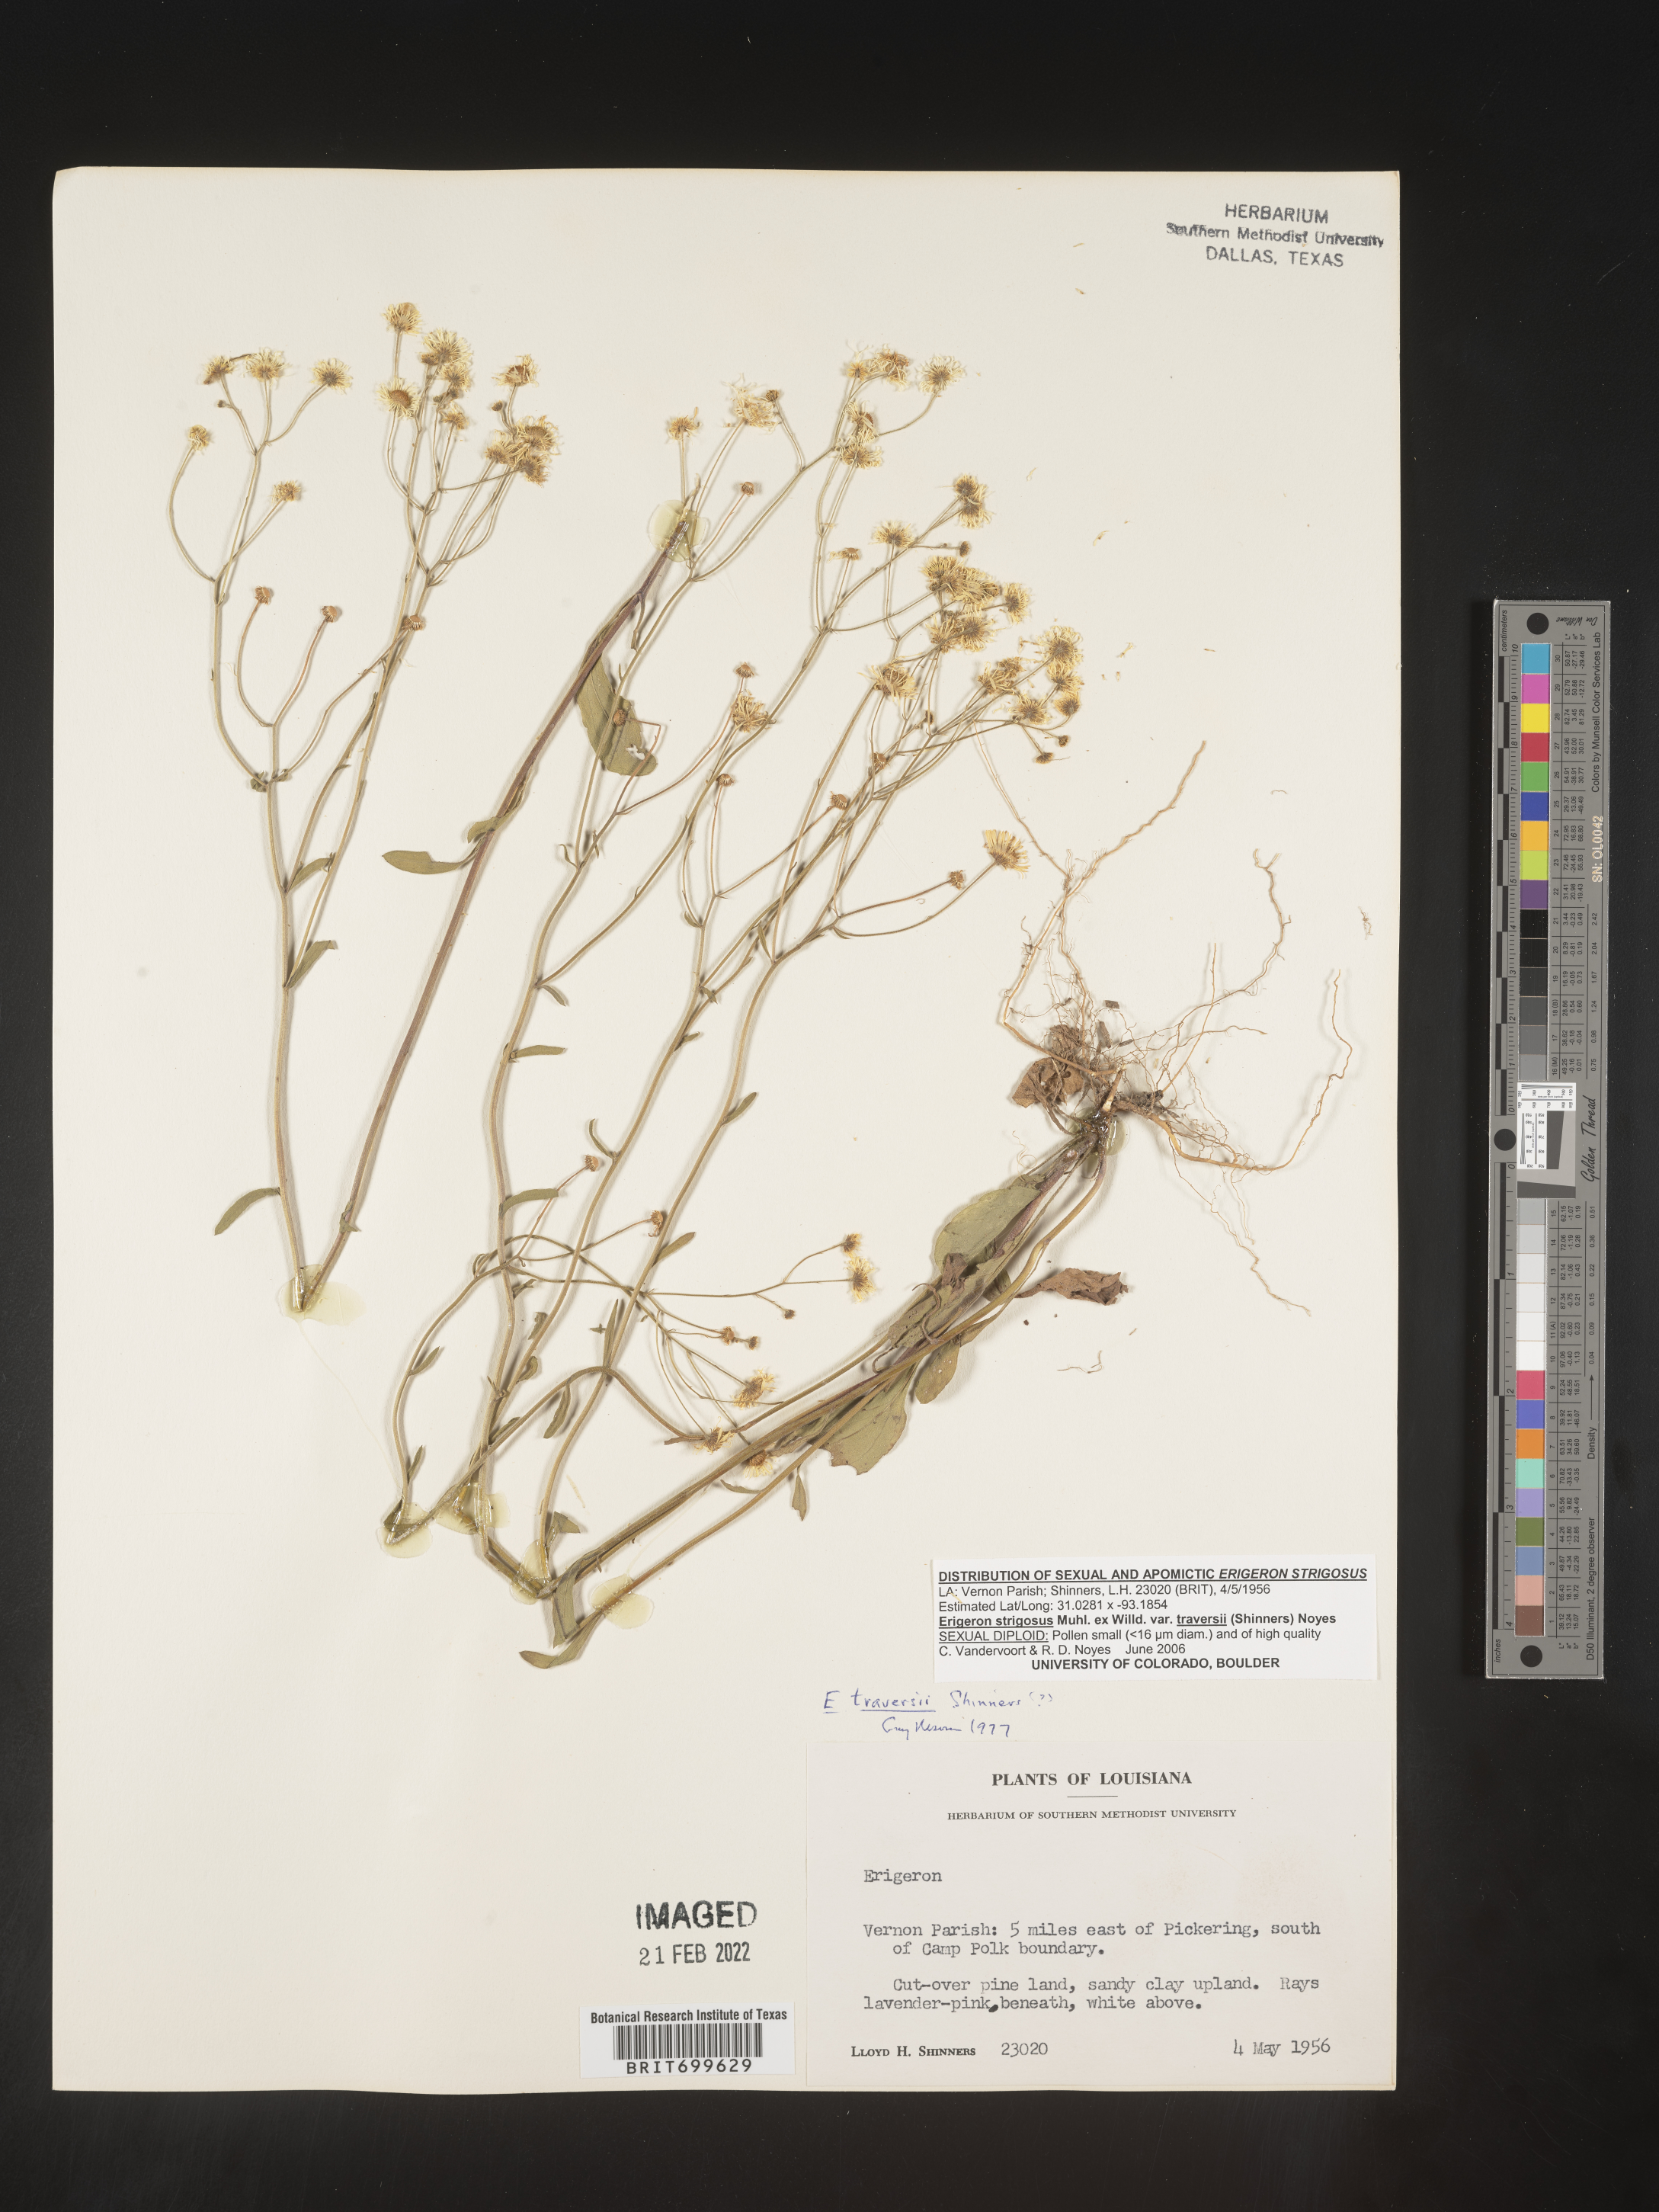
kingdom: Plantae
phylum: Tracheophyta
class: Magnoliopsida
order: Asterales
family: Asteraceae
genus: Erigeron
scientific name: Erigeron strigosus
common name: Common eastern fleabane
